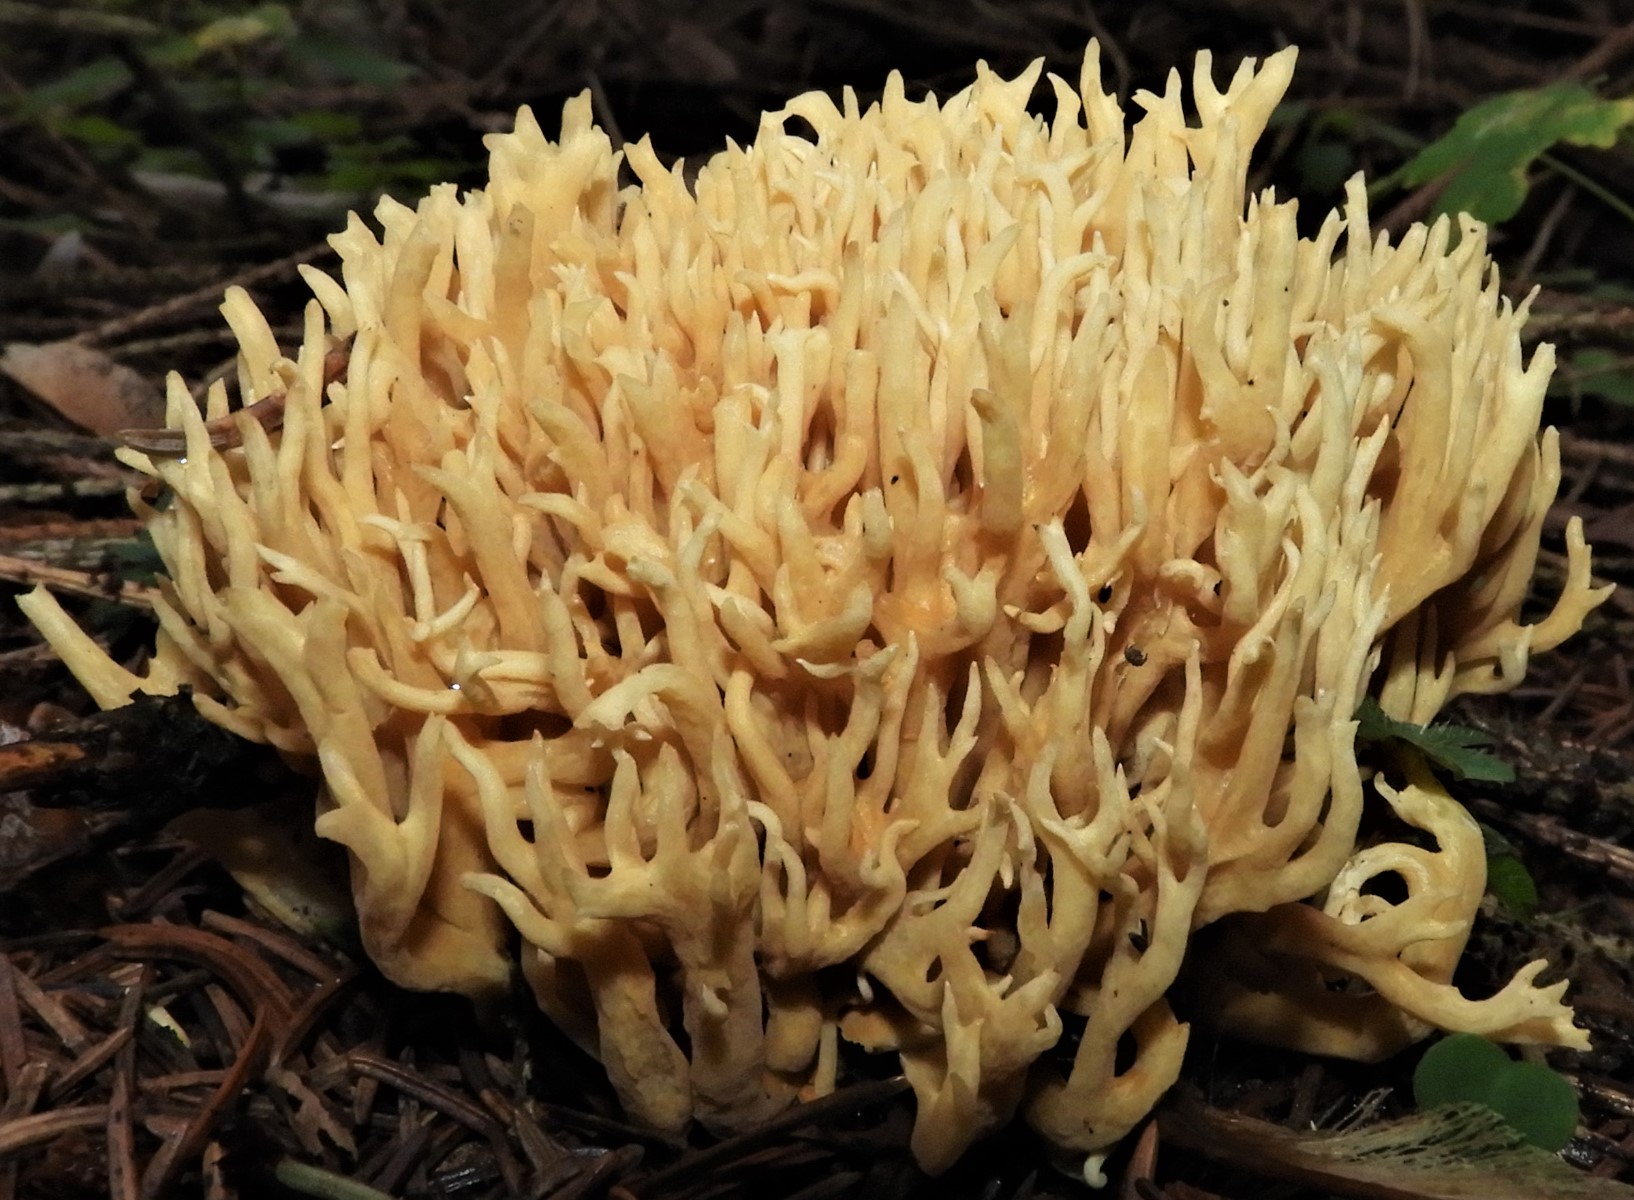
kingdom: Fungi
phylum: Basidiomycota
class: Agaricomycetes
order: Gomphales
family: Gomphaceae
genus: Phaeoclavulina
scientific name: Phaeoclavulina eumorpha
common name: gran-koralsvamp
